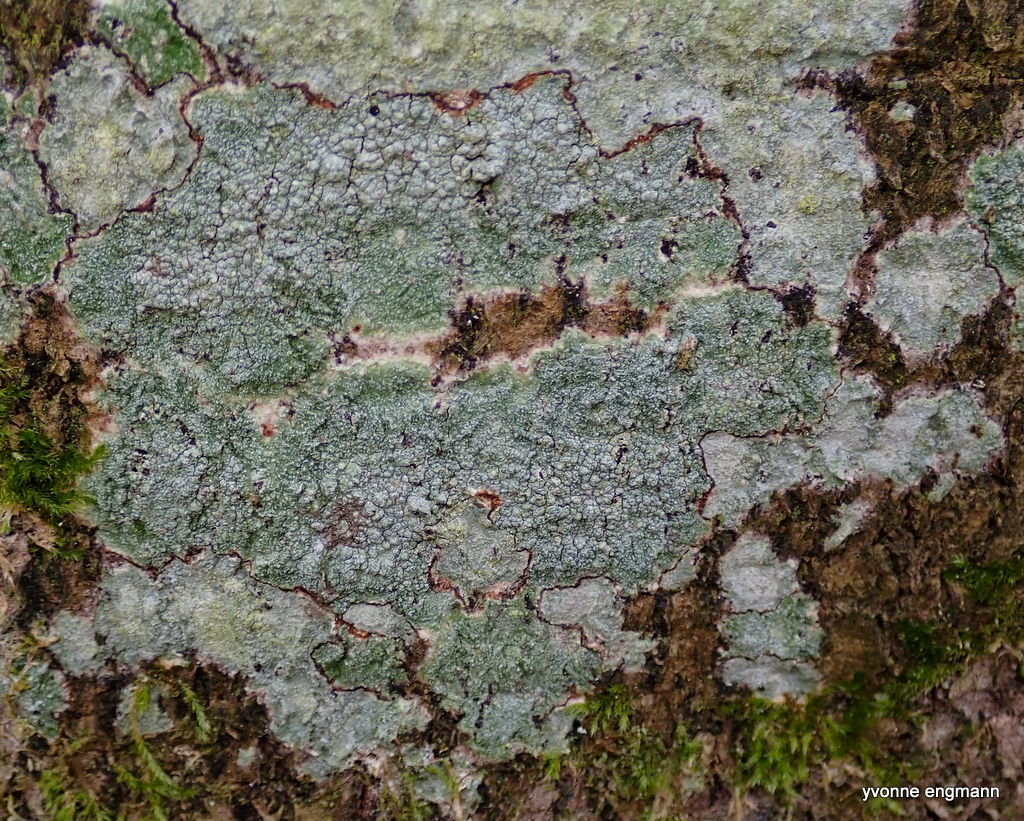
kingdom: Fungi
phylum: Ascomycota
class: Lecanoromycetes
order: Pertusariales
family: Pertusariaceae
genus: Pertusaria
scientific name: Pertusaria pertusa
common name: almindelig prikvortelav
